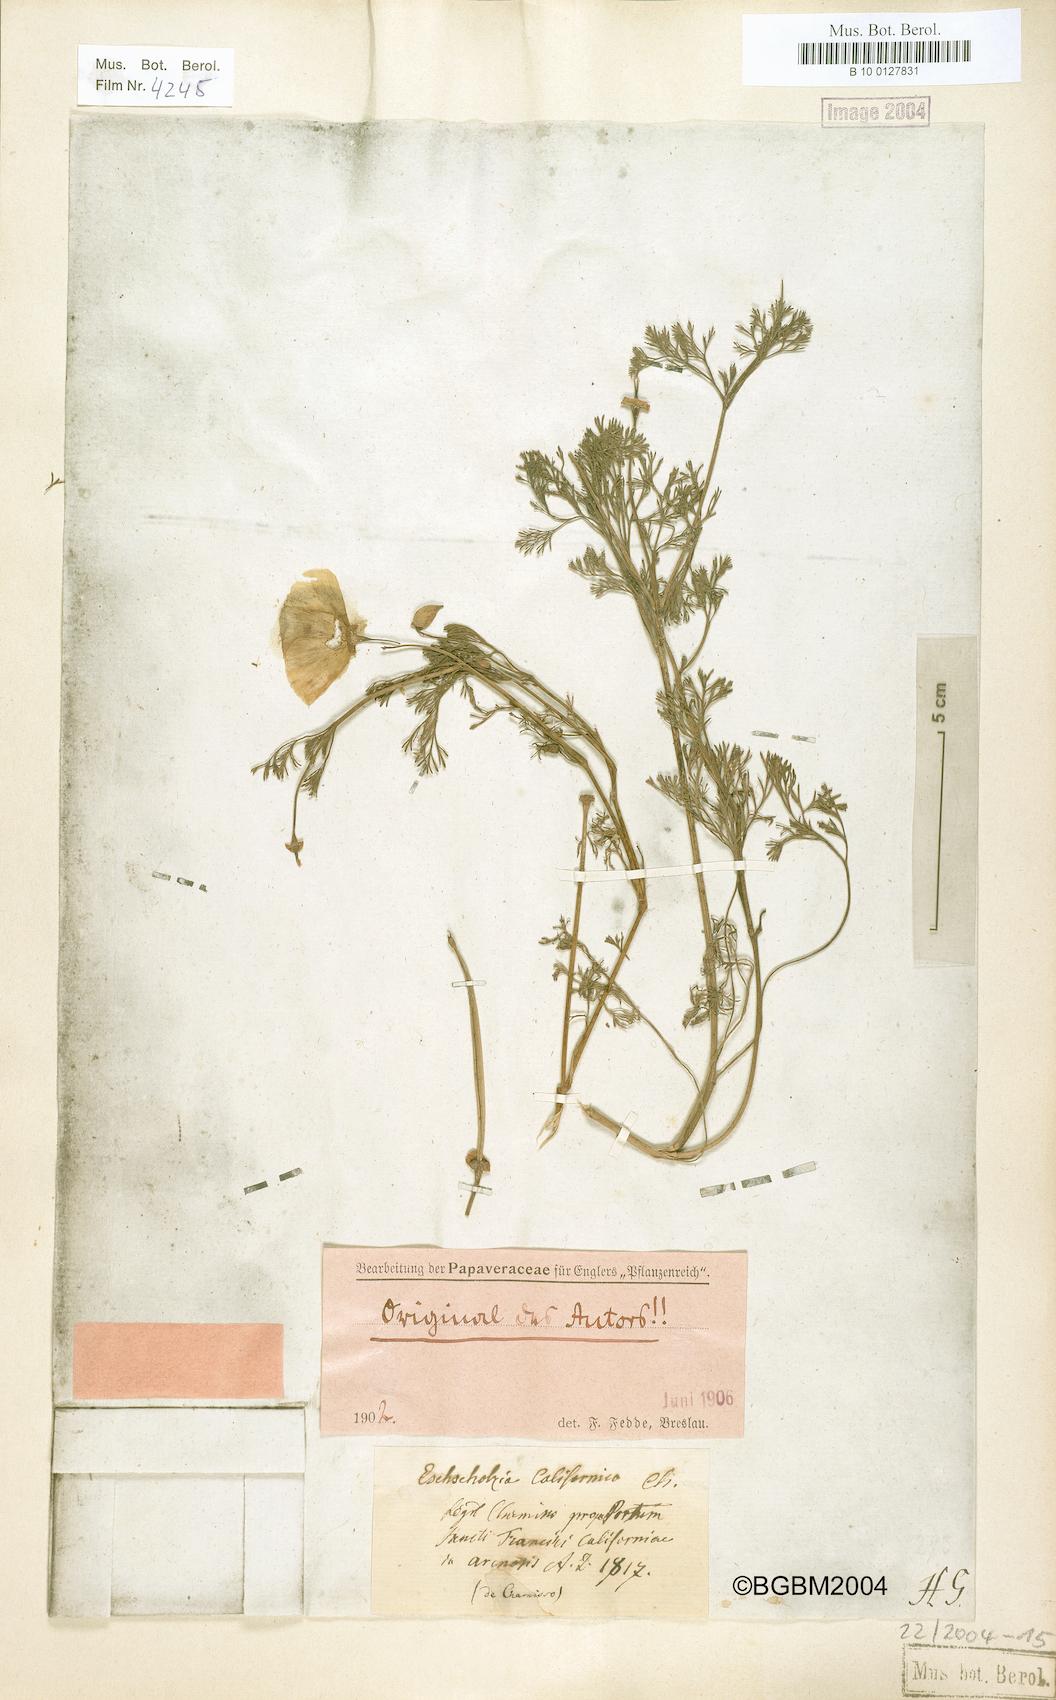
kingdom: Plantae
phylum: Tracheophyta
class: Magnoliopsida
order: Ranunculales
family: Papaveraceae
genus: Eschscholzia
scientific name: Eschscholzia californica
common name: California poppy
